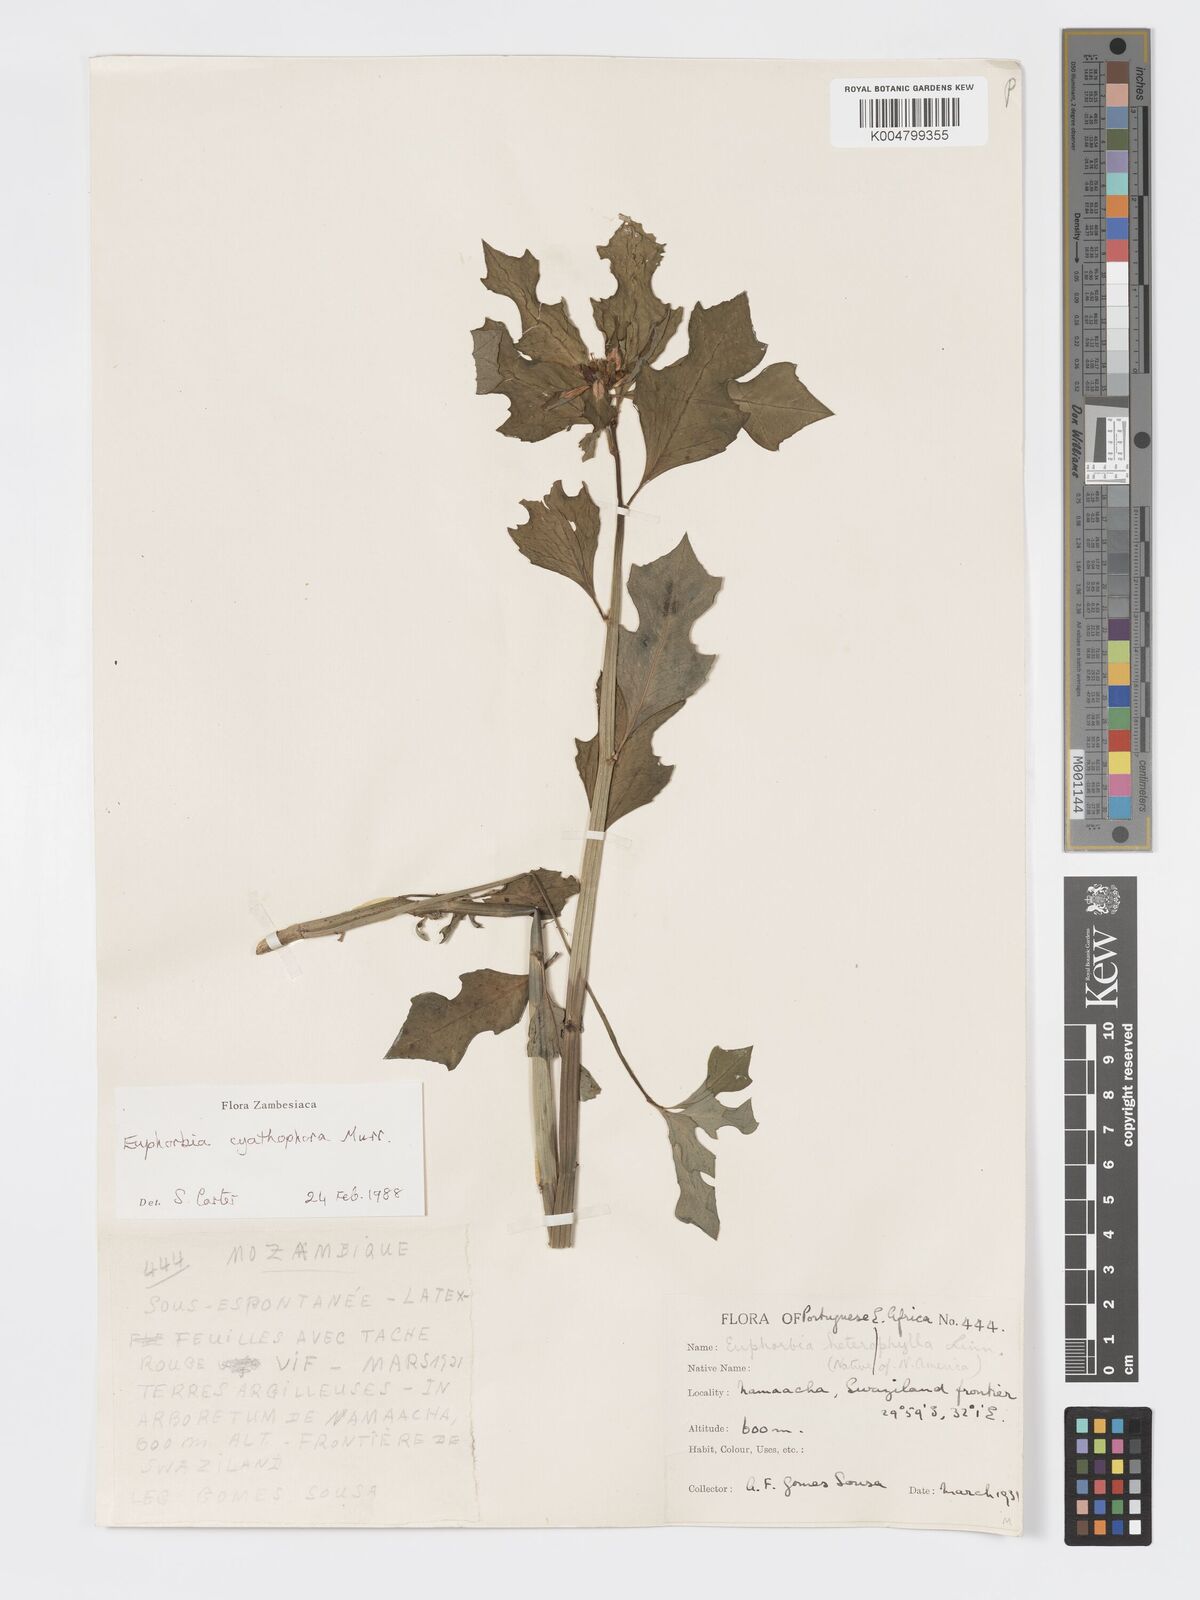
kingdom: Plantae
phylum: Tracheophyta
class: Magnoliopsida
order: Malpighiales
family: Euphorbiaceae
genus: Euphorbia
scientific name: Euphorbia heterophylla
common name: Mexican fireplant
